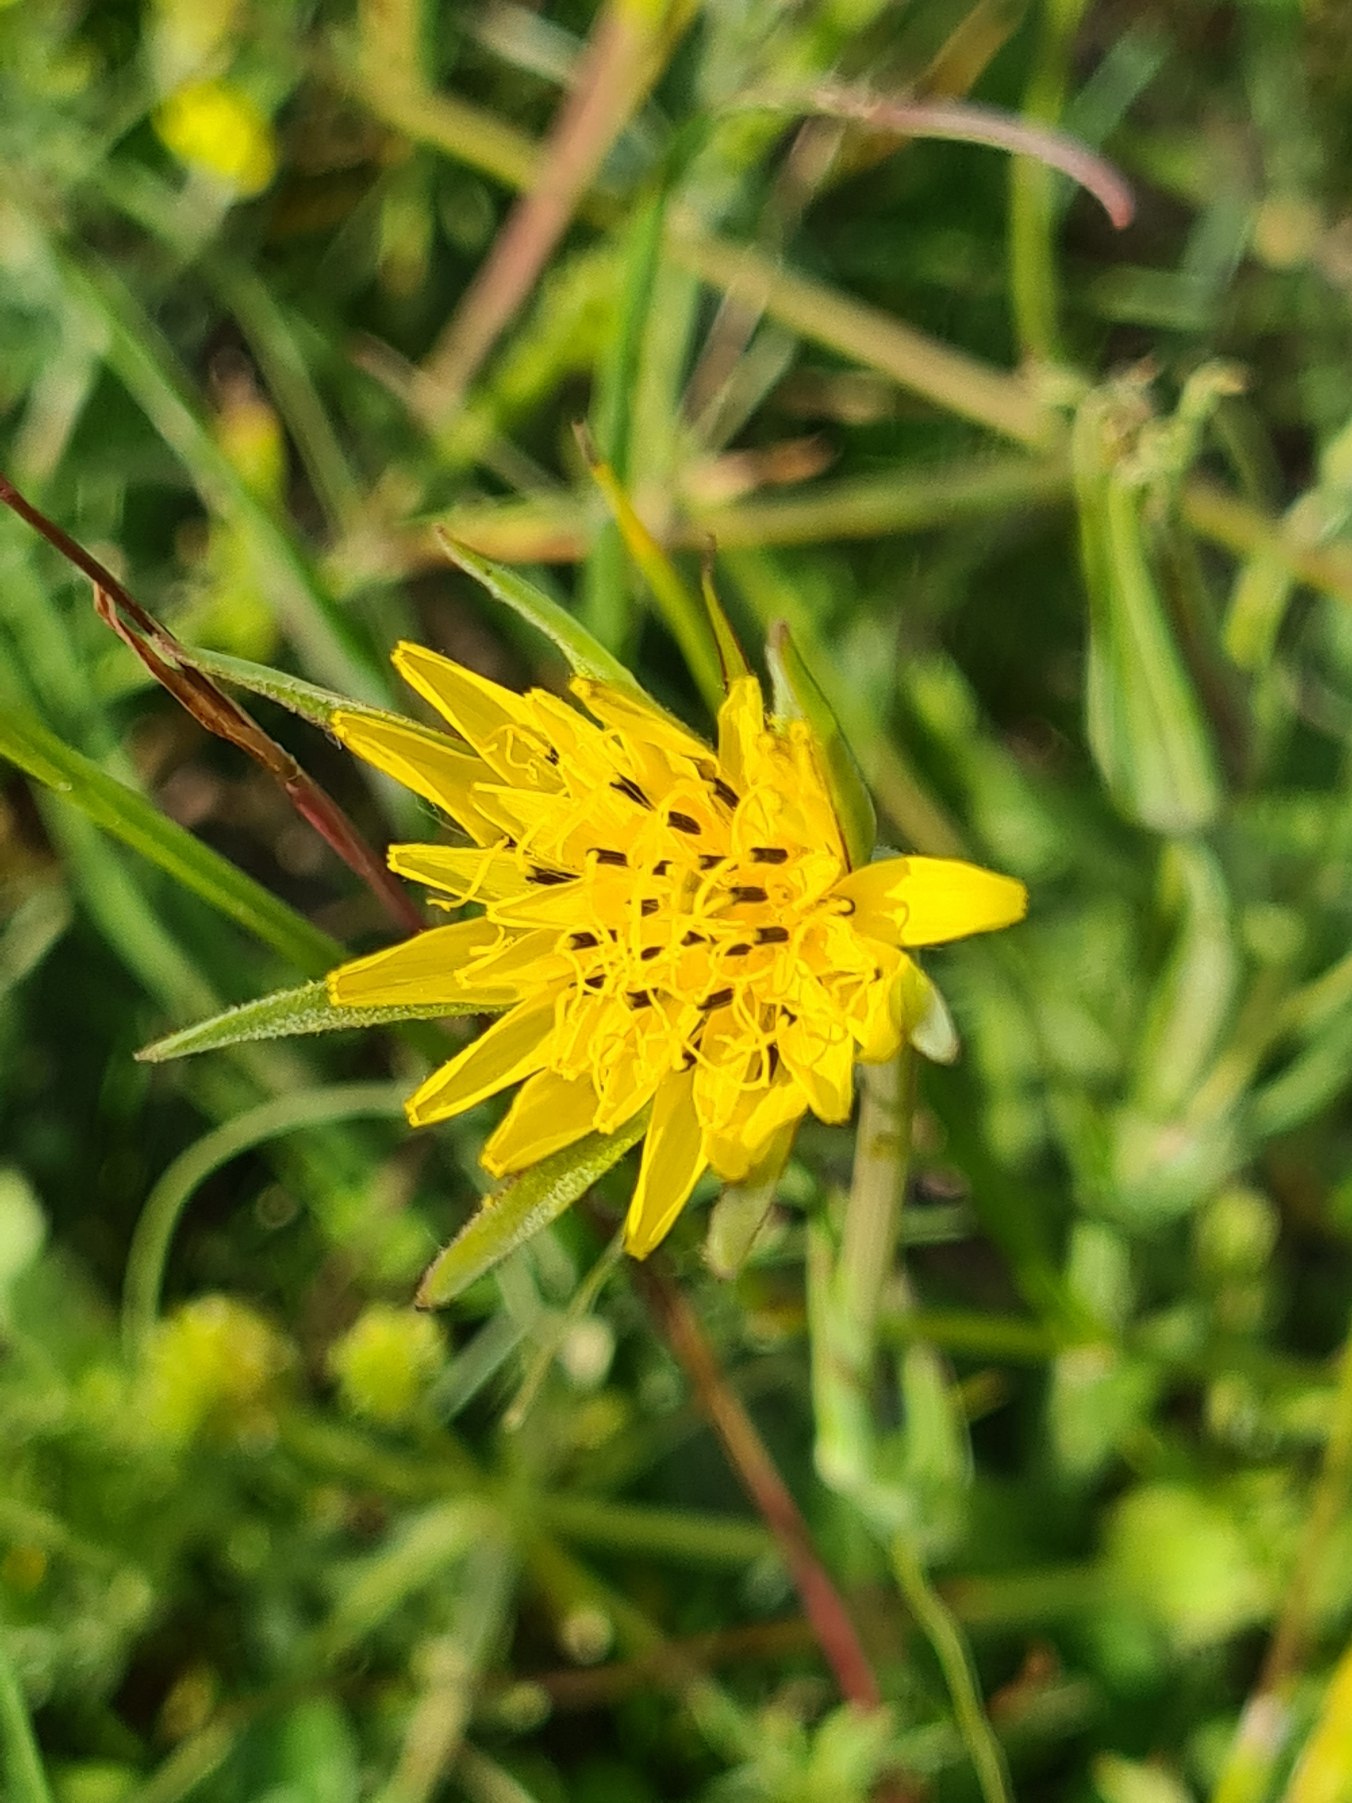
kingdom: Plantae
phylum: Tracheophyta
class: Magnoliopsida
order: Asterales
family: Asteraceae
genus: Tragopogon
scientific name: Tragopogon minor
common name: Småkronet gedeskæg
